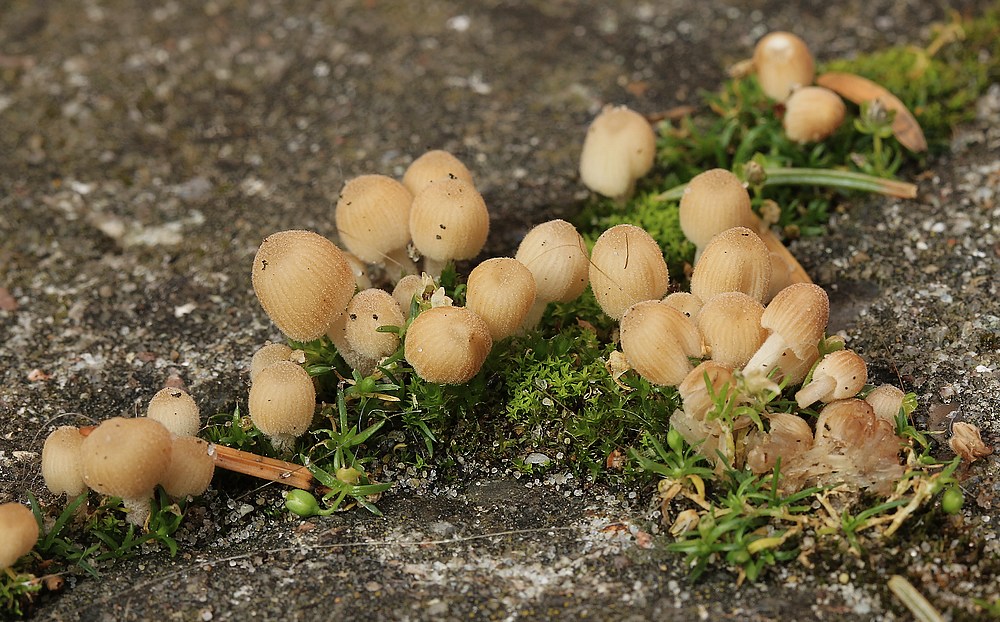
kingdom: Fungi
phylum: Basidiomycota
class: Agaricomycetes
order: Agaricales
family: Psathyrellaceae
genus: Coprinellus
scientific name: Coprinellus disseminatus
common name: bredsået blækhat
